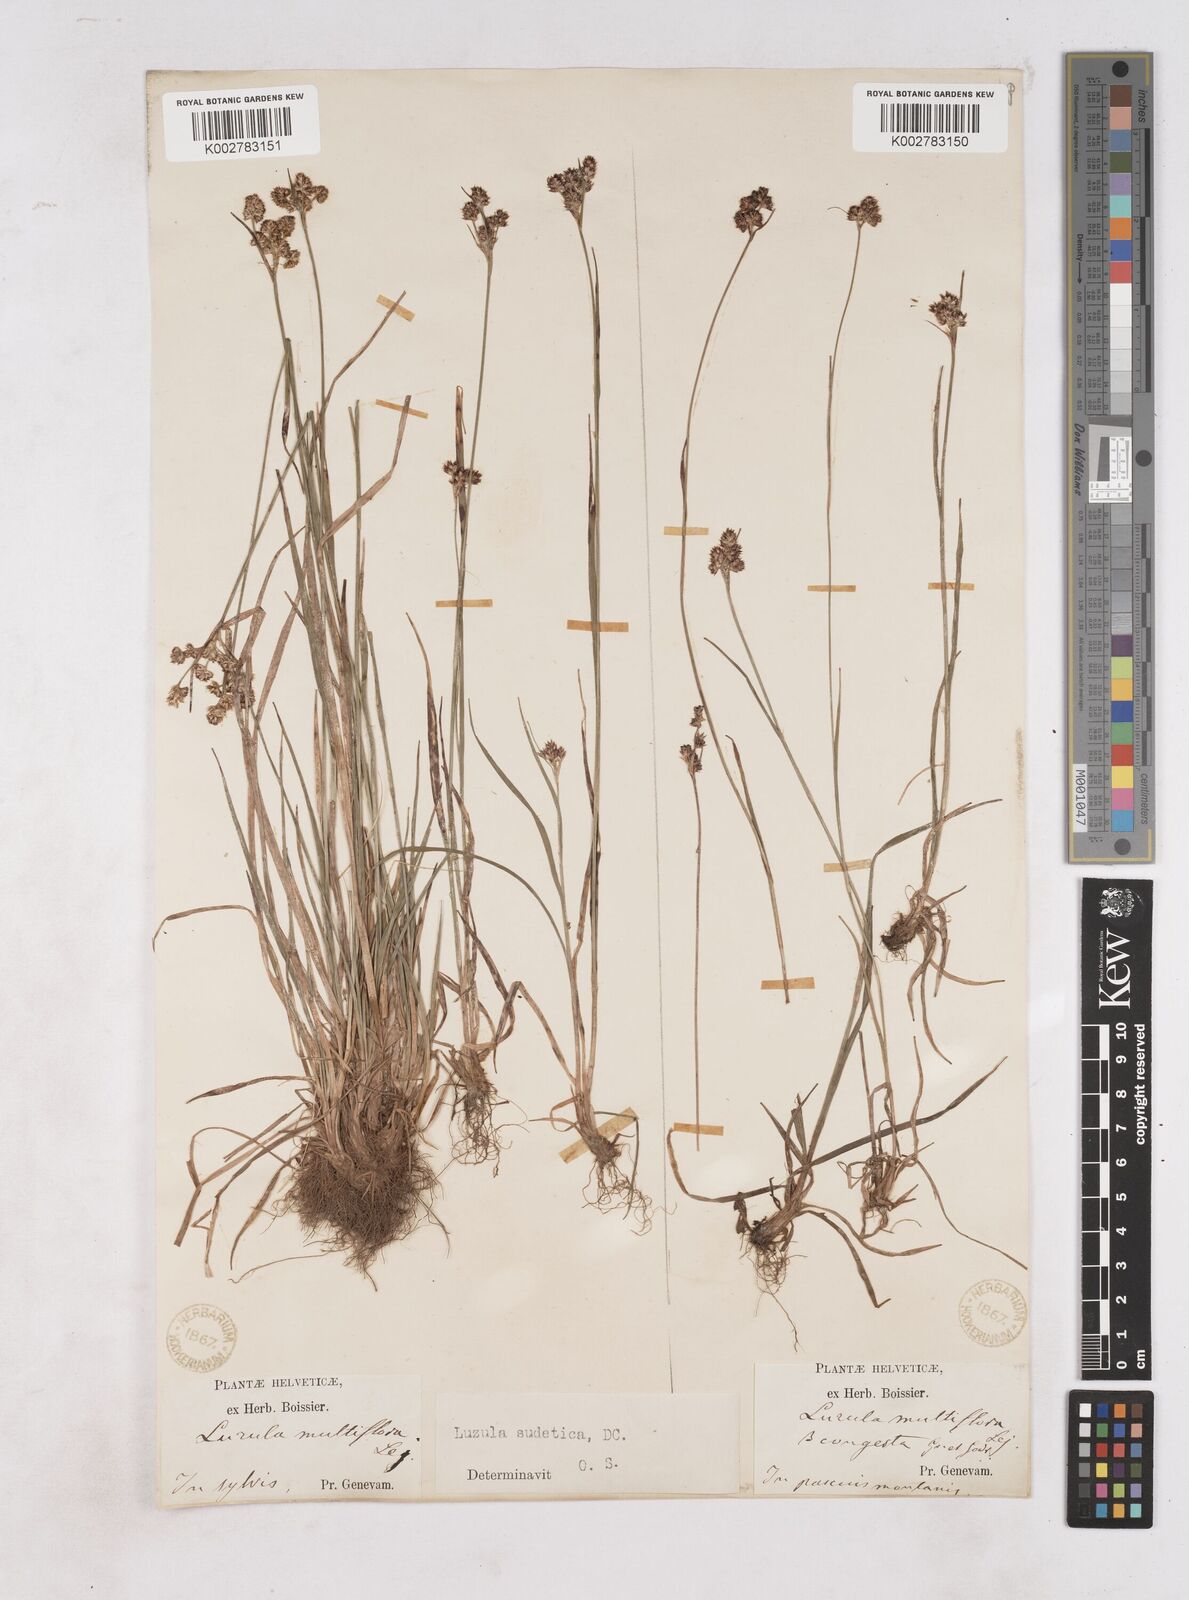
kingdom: Plantae
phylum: Tracheophyta
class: Liliopsida
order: Poales
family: Juncaceae
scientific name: Juncaceae
